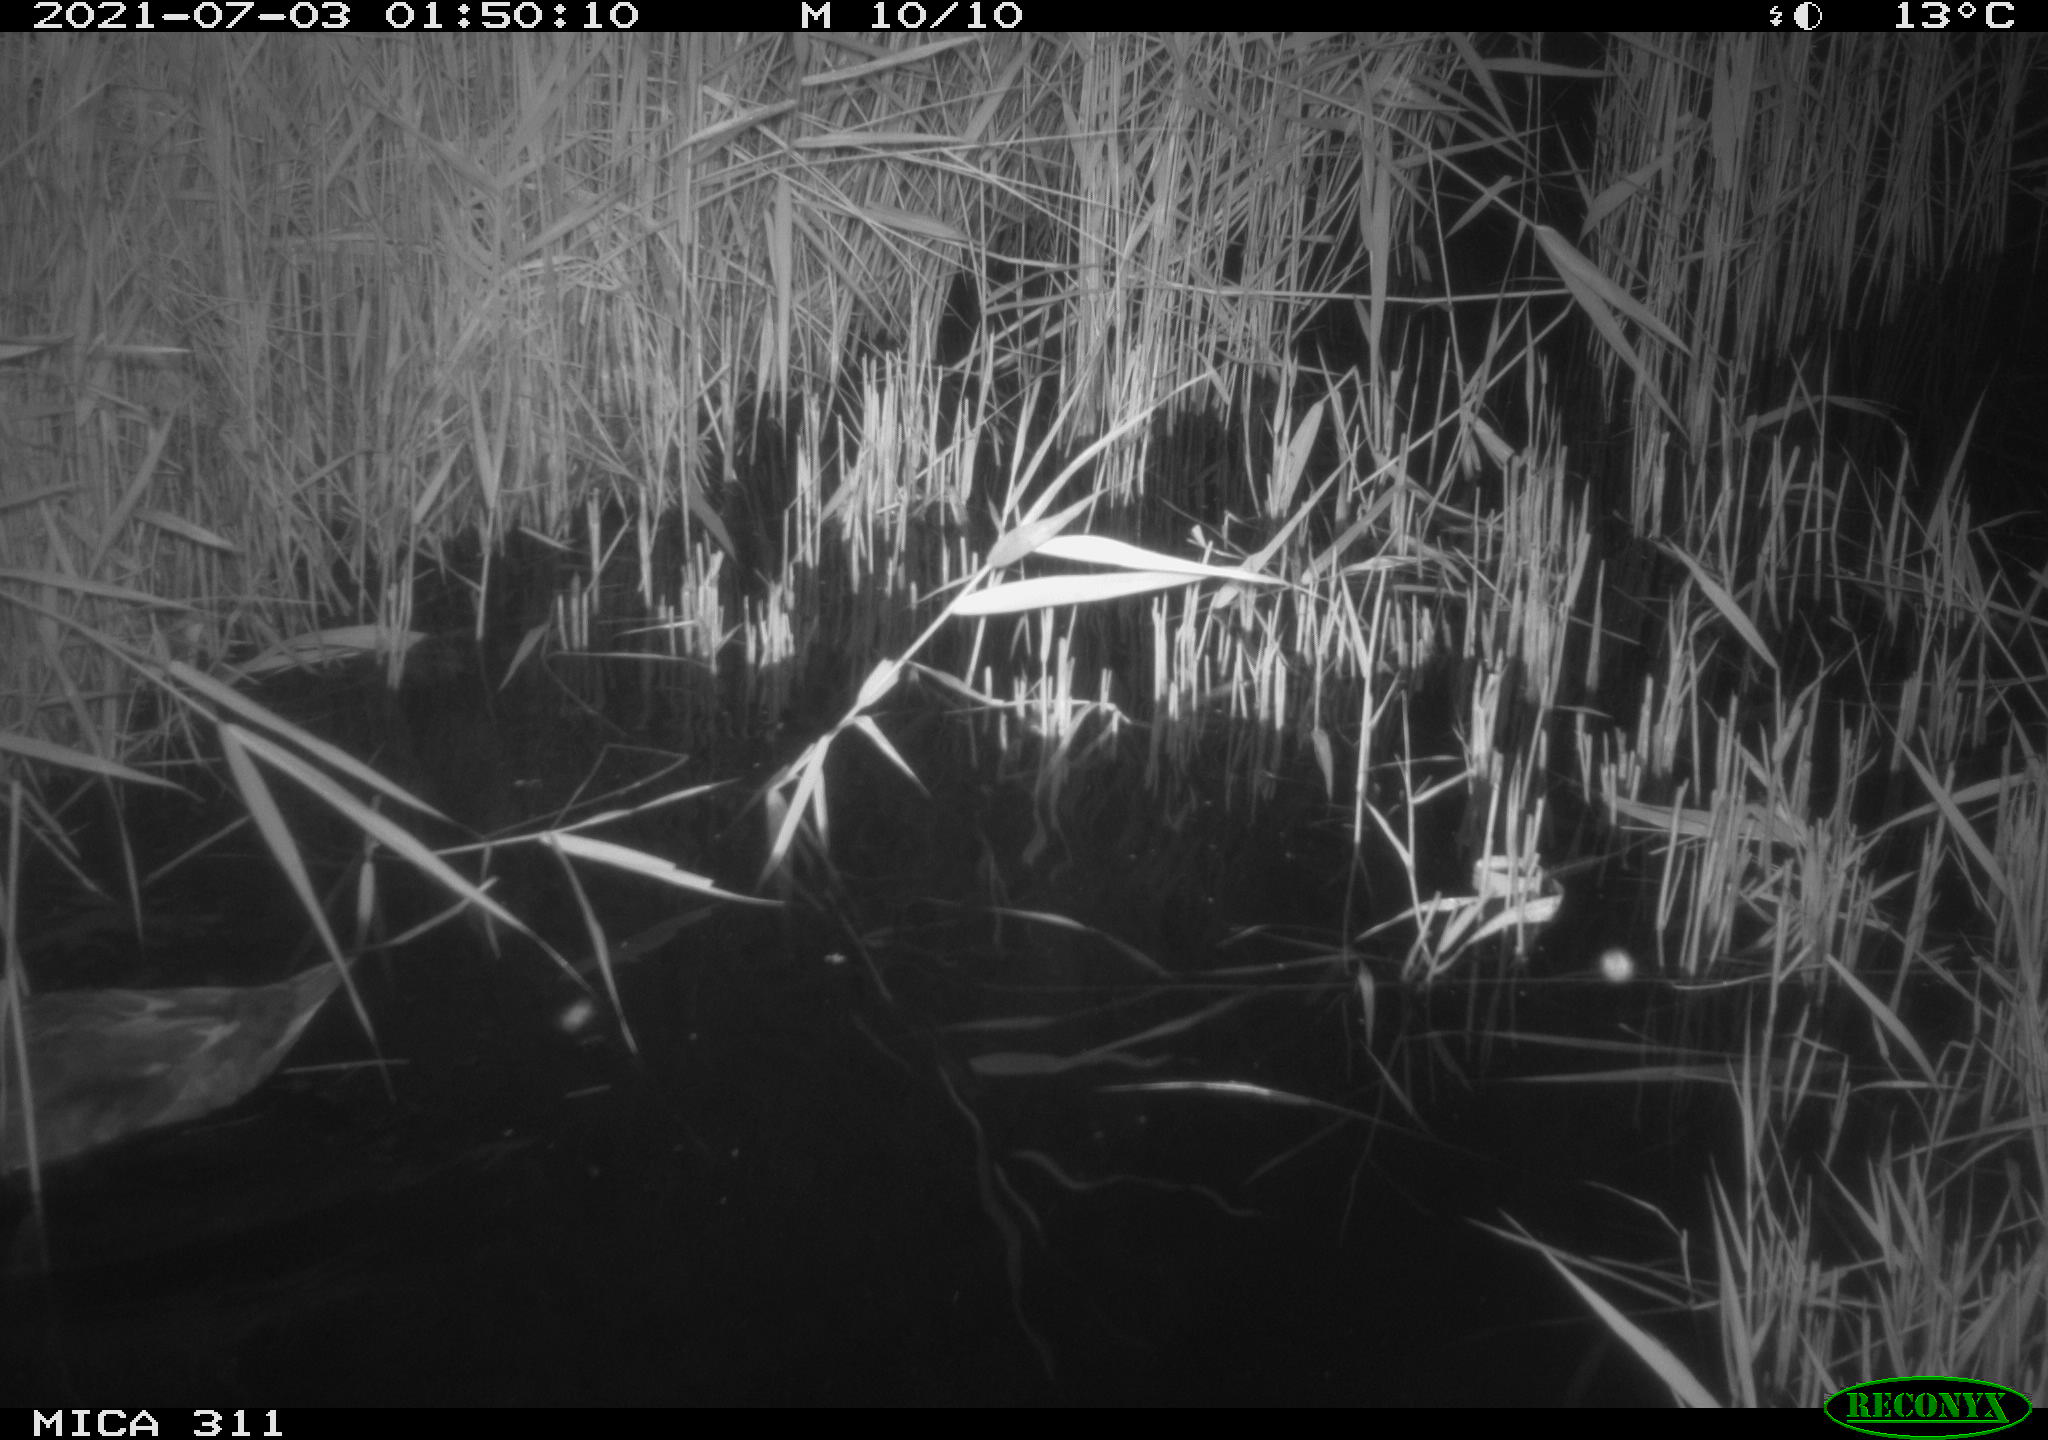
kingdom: Animalia
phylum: Chordata
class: Aves
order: Anseriformes
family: Anatidae
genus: Anas
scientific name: Anas
